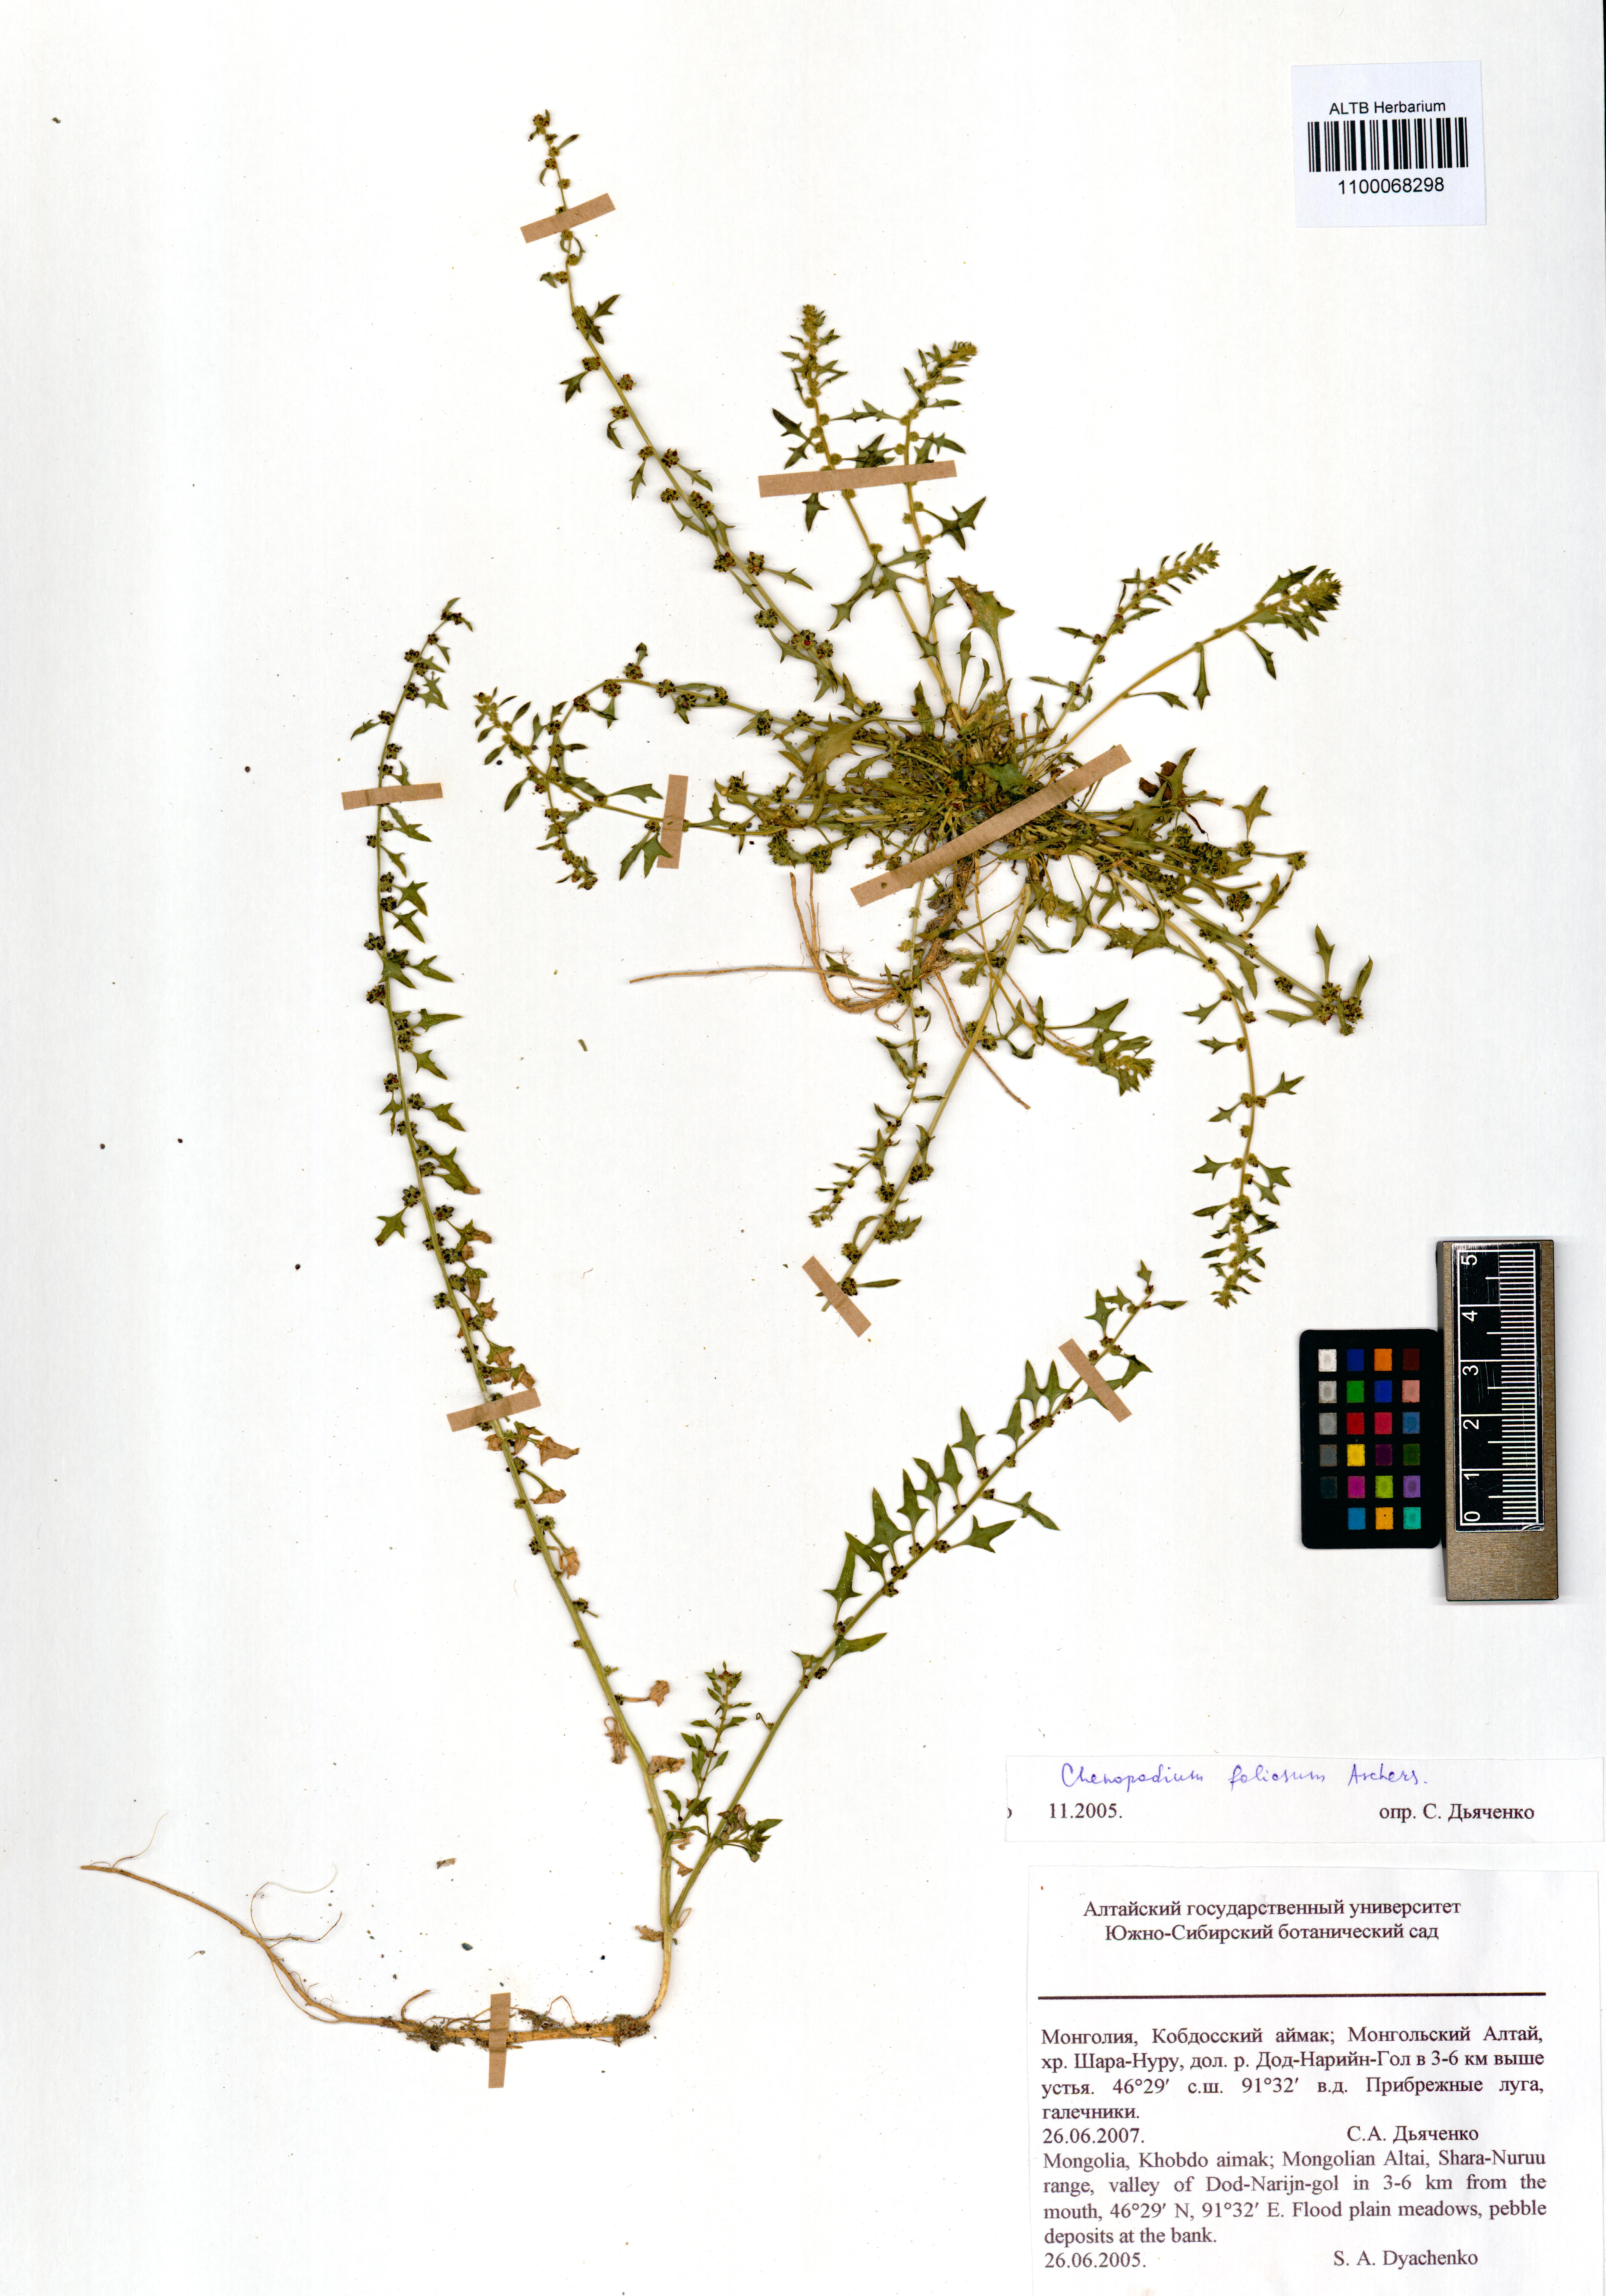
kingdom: Plantae
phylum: Tracheophyta
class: Magnoliopsida
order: Caryophyllales
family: Amaranthaceae
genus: Blitum
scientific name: Blitum virgatum
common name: Strawberry goosefoot
